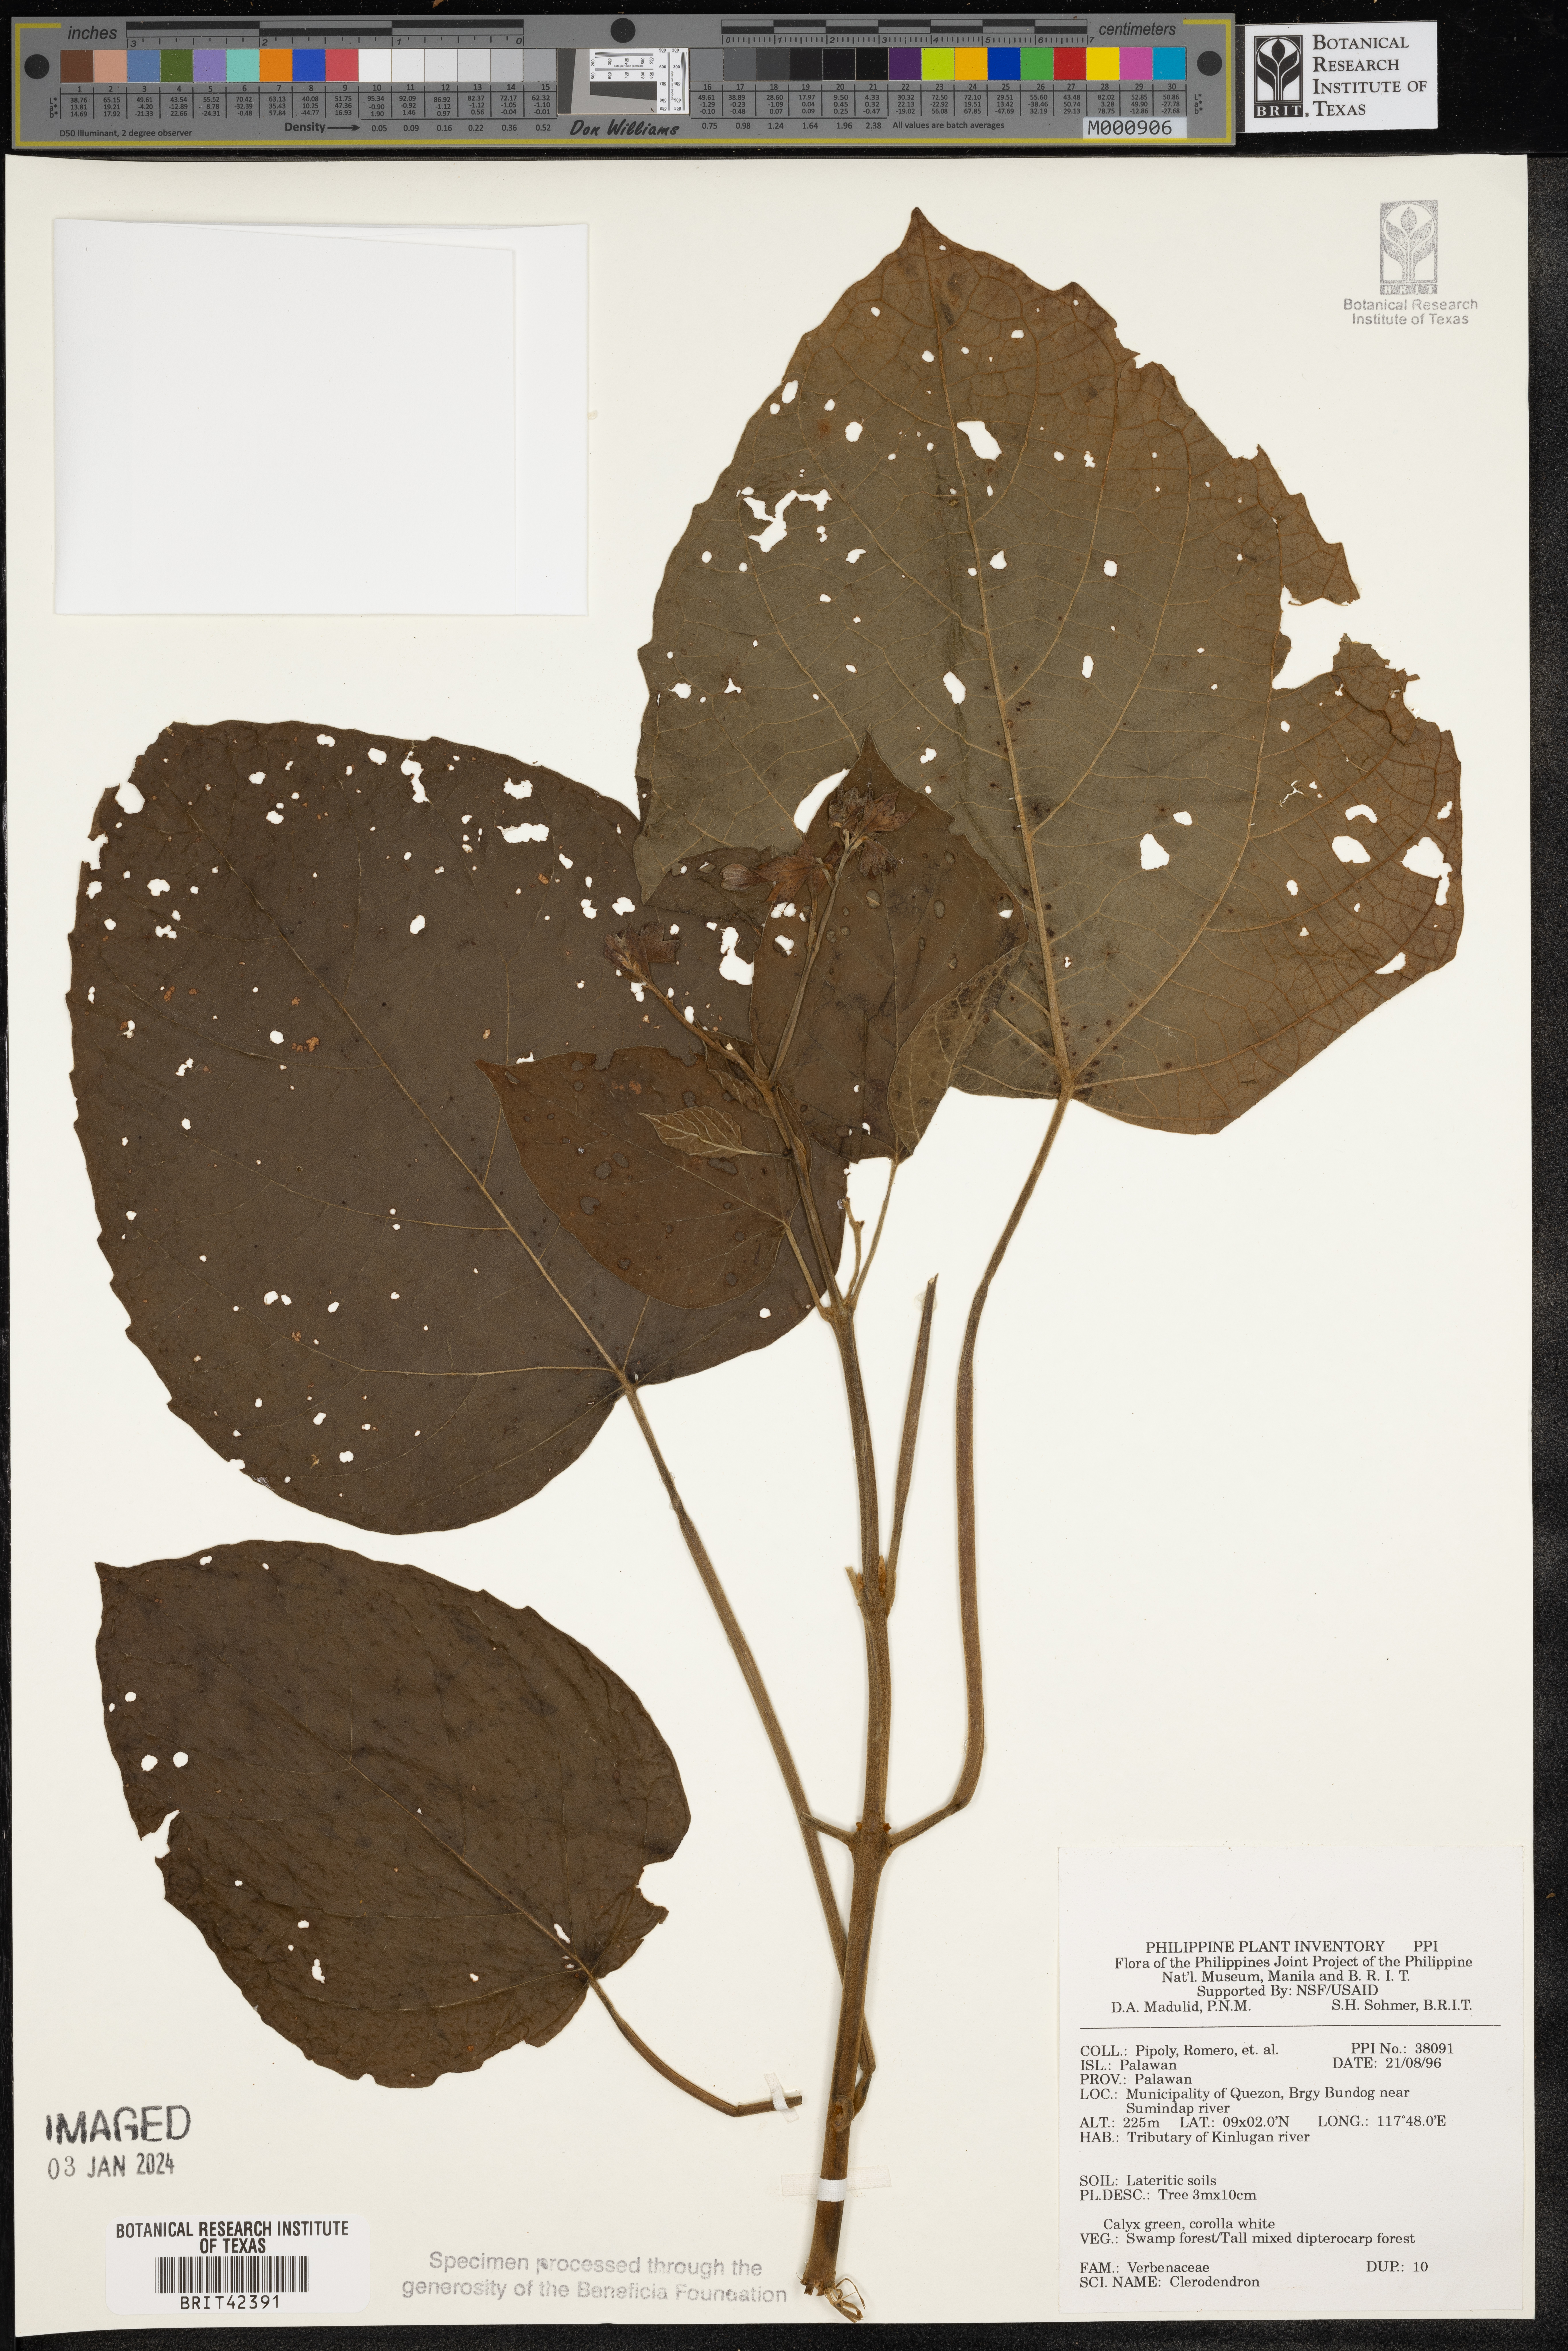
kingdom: Plantae
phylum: Tracheophyta
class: Magnoliopsida
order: Lamiales
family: Lamiaceae
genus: Clerodendrum
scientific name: Clerodendrum
